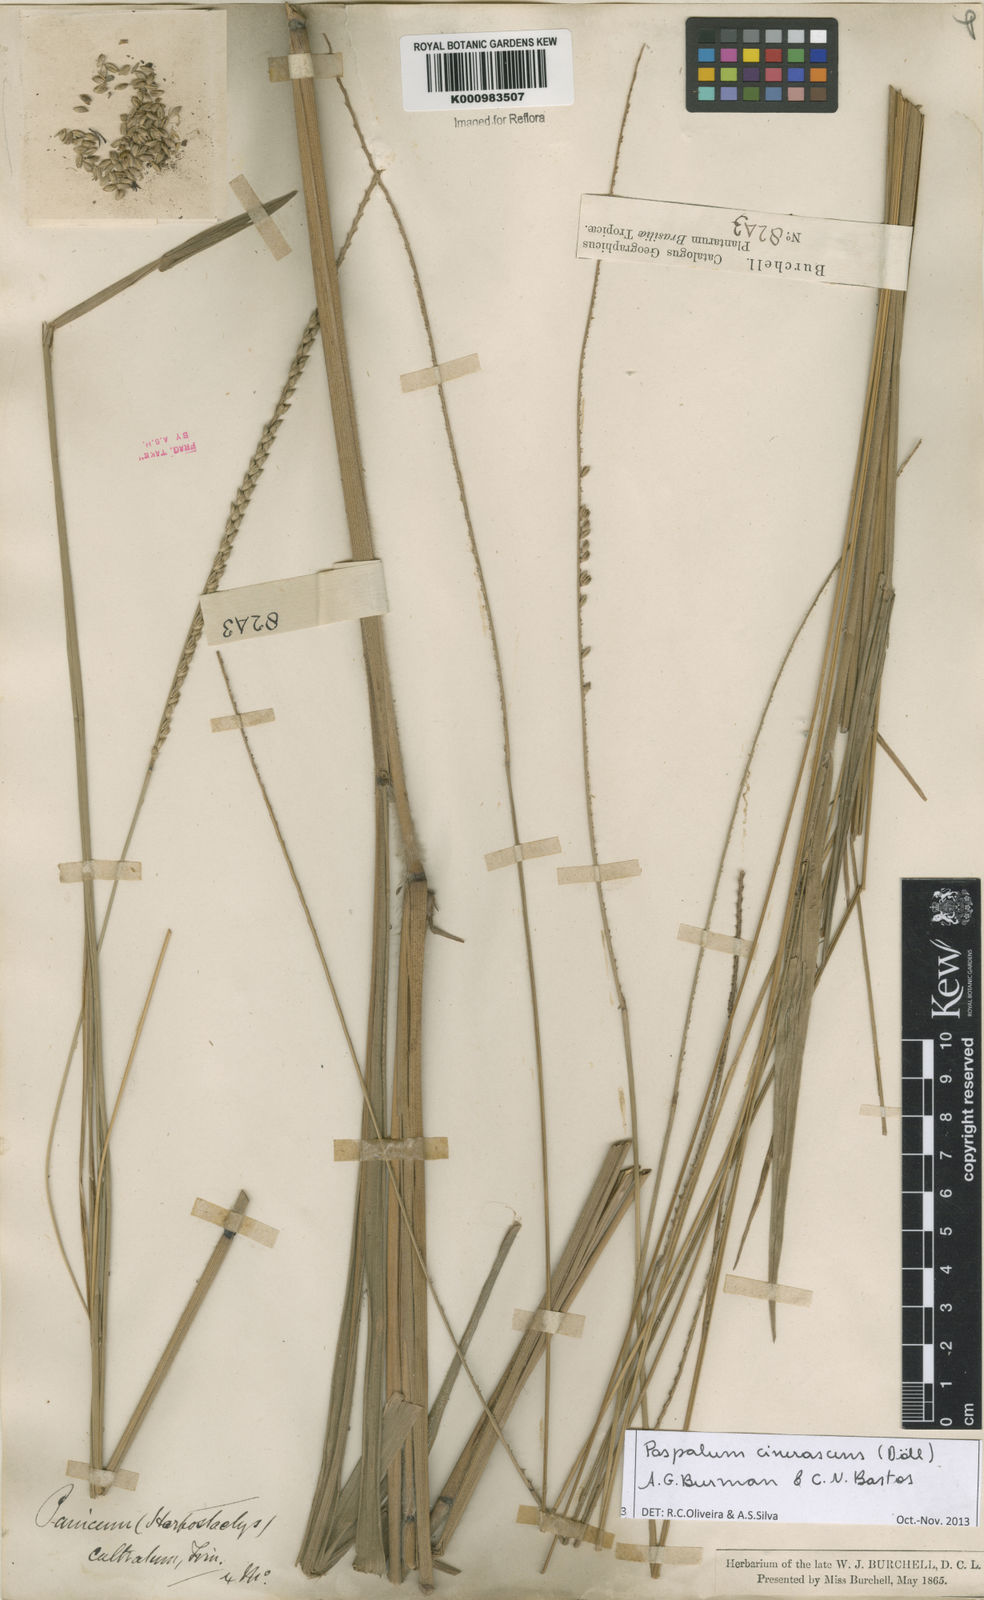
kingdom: Plantae
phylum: Tracheophyta
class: Liliopsida
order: Poales
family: Poaceae
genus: Paspalum
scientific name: Paspalum
